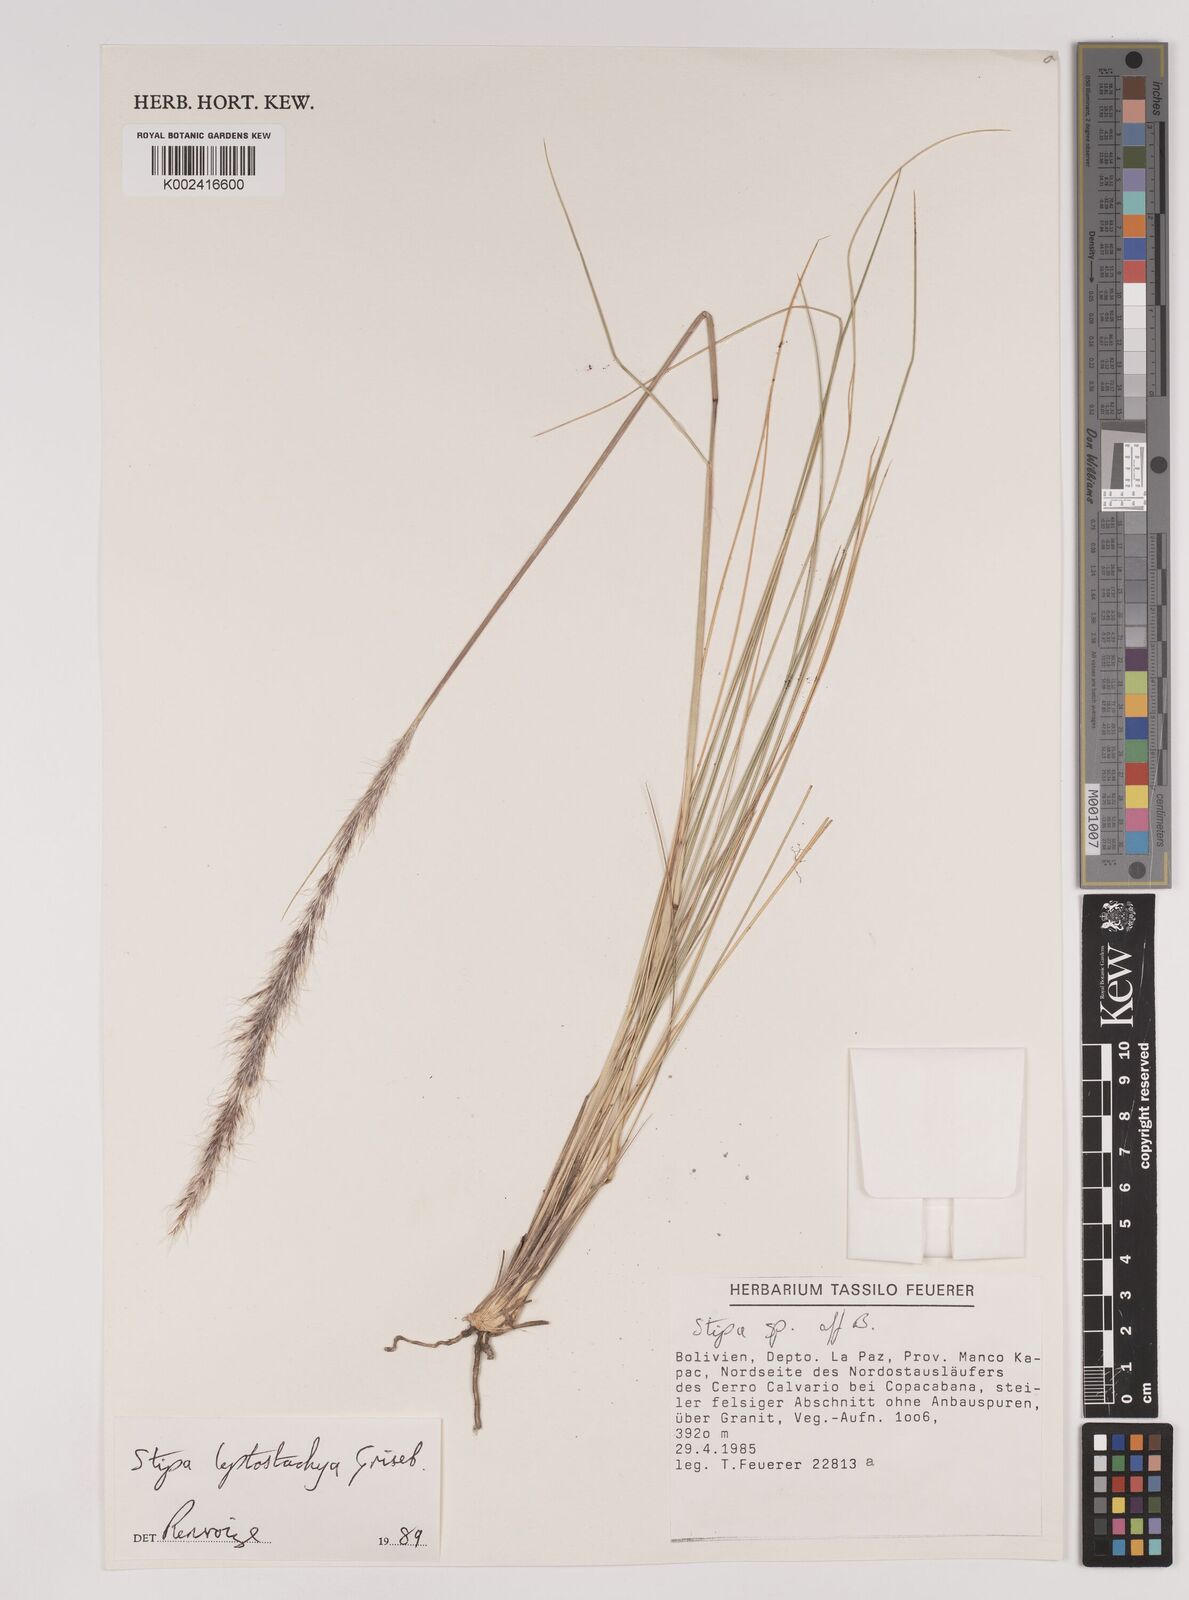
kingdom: Plantae
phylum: Tracheophyta
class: Liliopsida
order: Poales
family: Poaceae
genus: Jarava
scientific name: Jarava leptostachya
